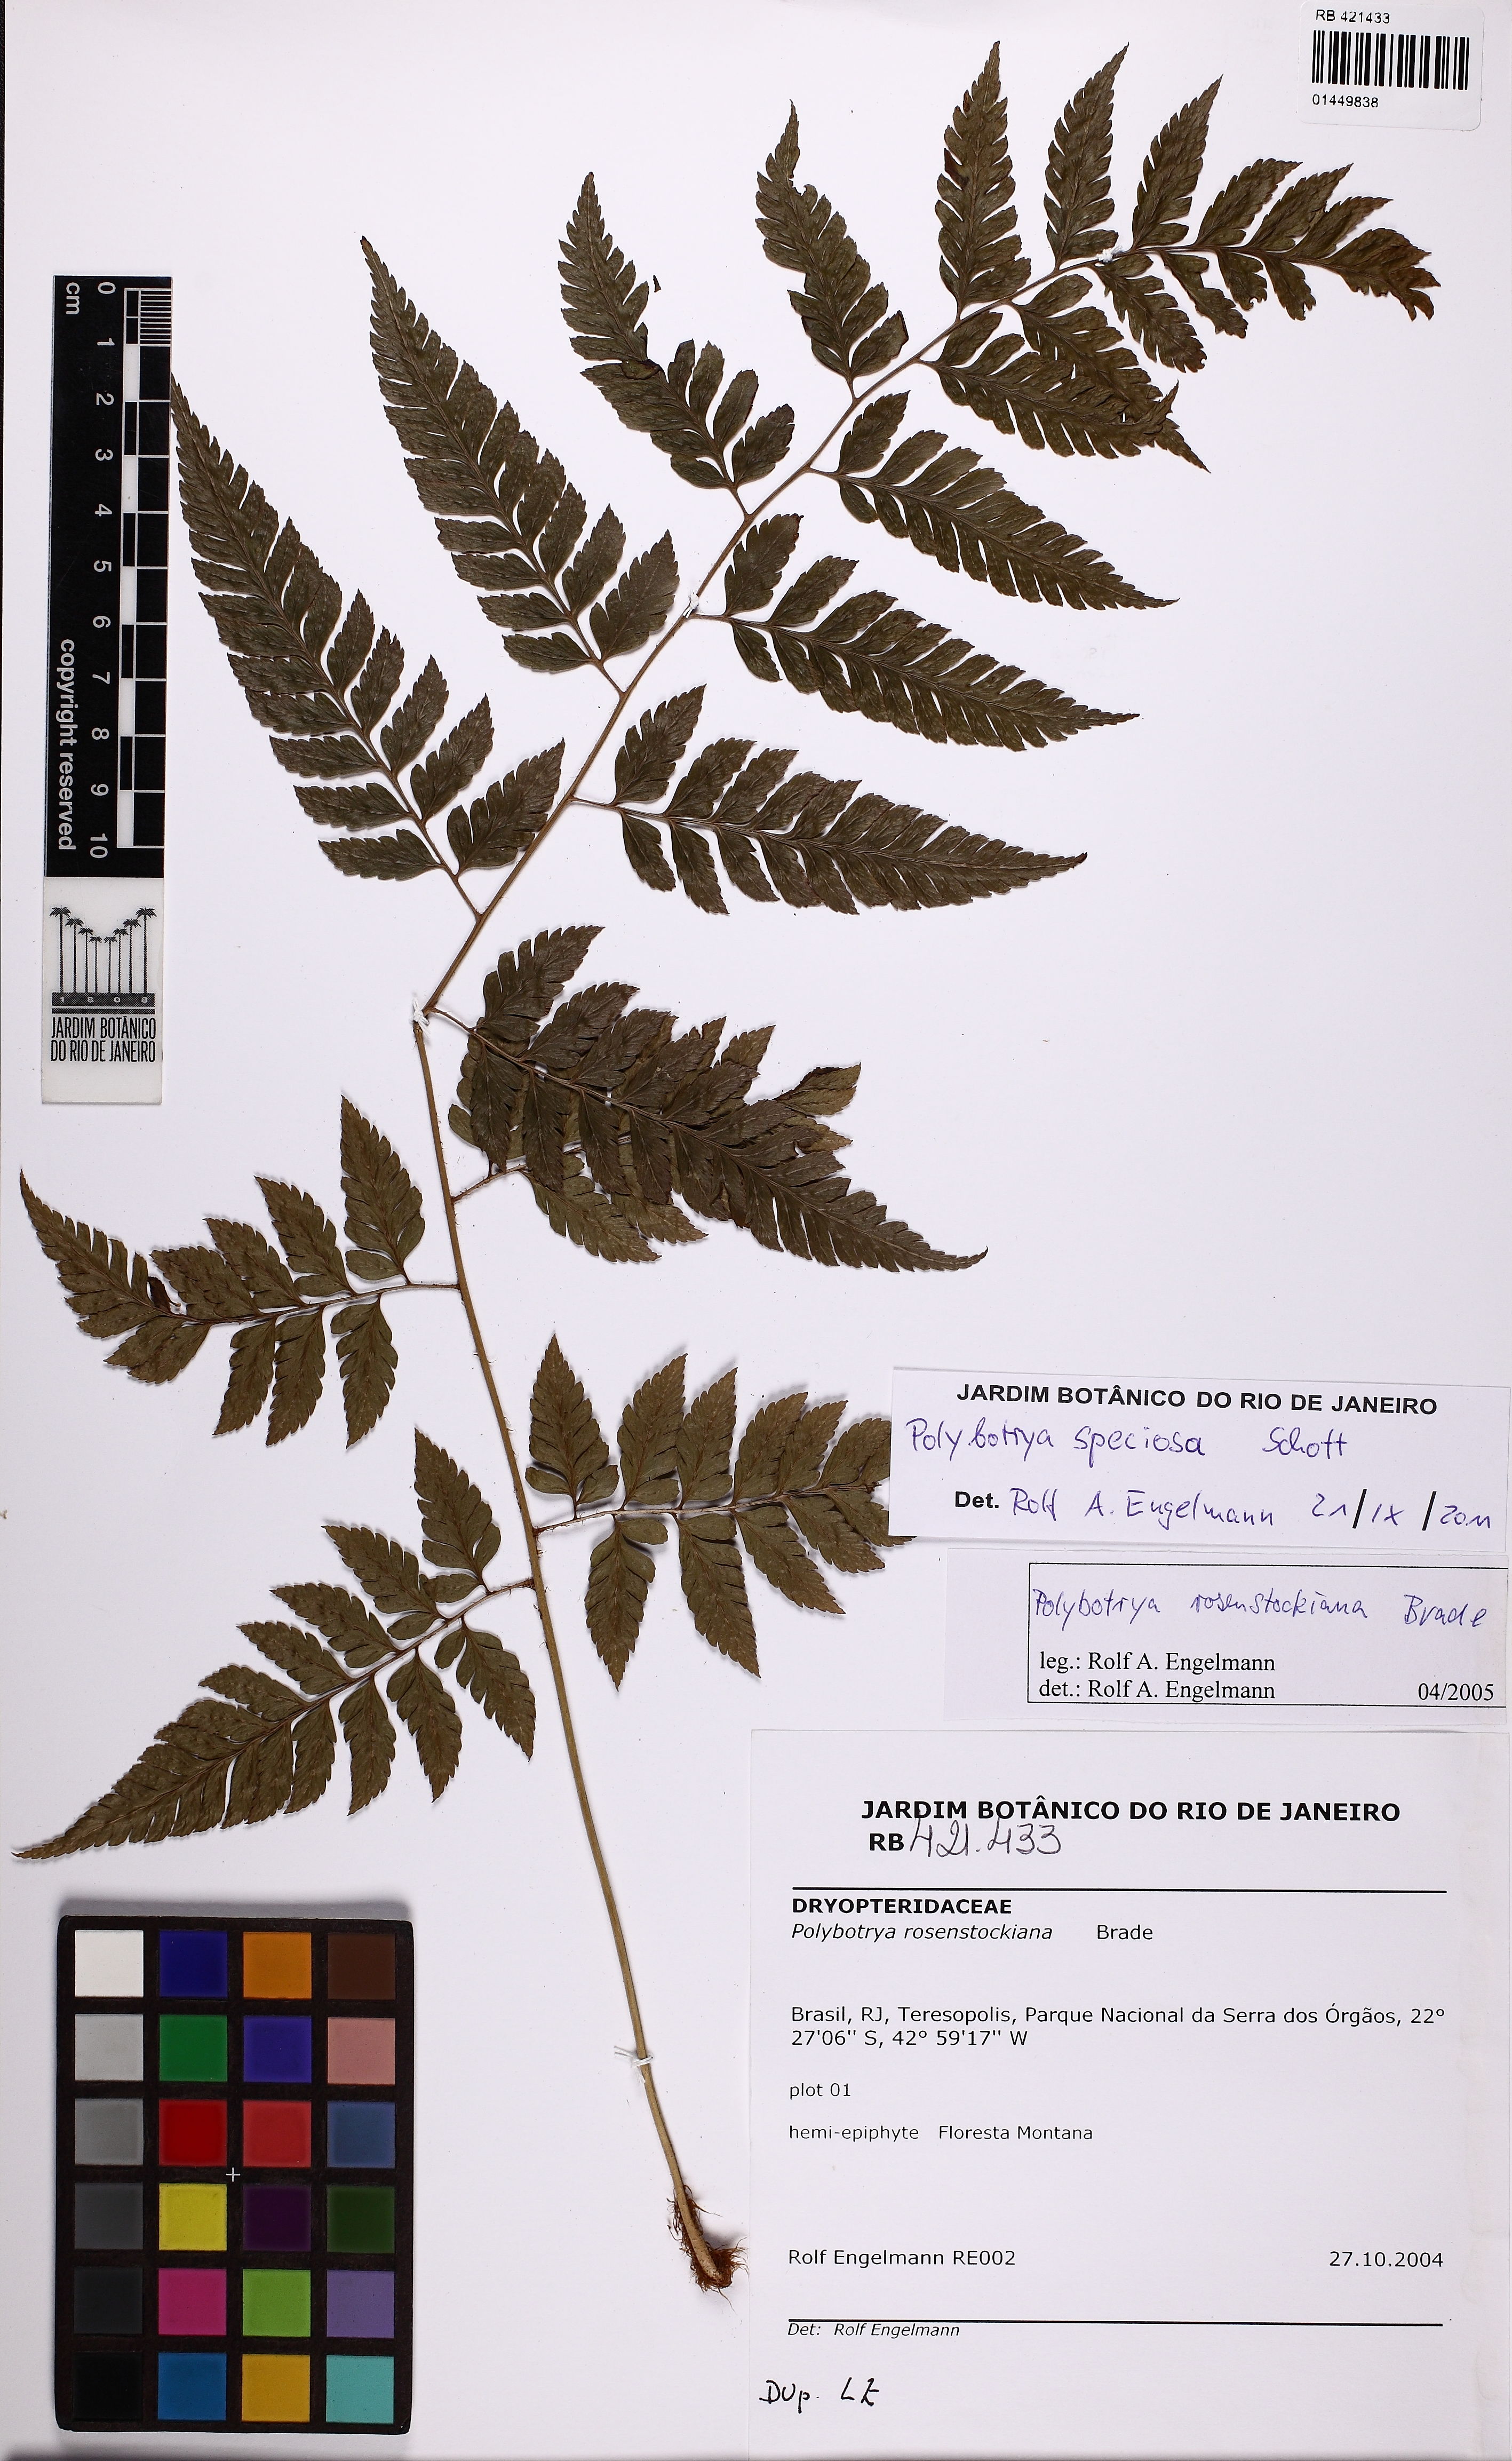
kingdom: Plantae
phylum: Tracheophyta
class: Polypodiopsida
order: Polypodiales
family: Dryopteridaceae
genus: Polybotrya
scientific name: Polybotrya speciosa
